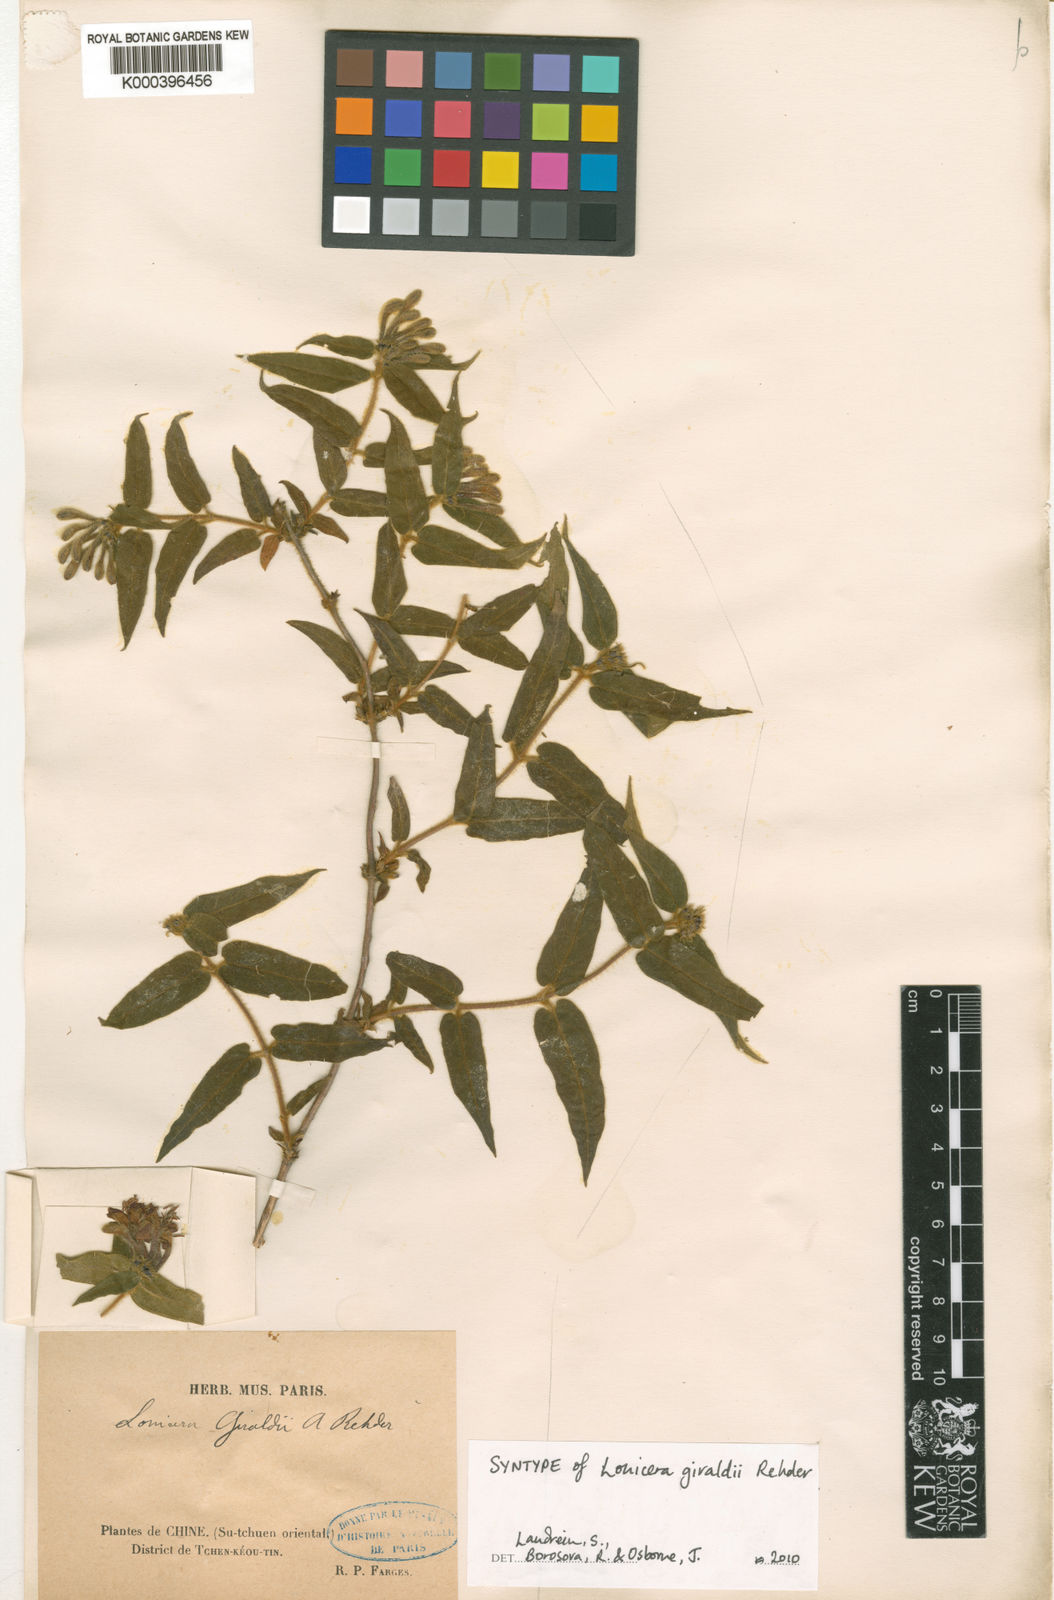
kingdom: Plantae
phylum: Tracheophyta
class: Magnoliopsida
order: Dipsacales
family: Caprifoliaceae
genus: Lonicera
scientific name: Lonicera acuminata
